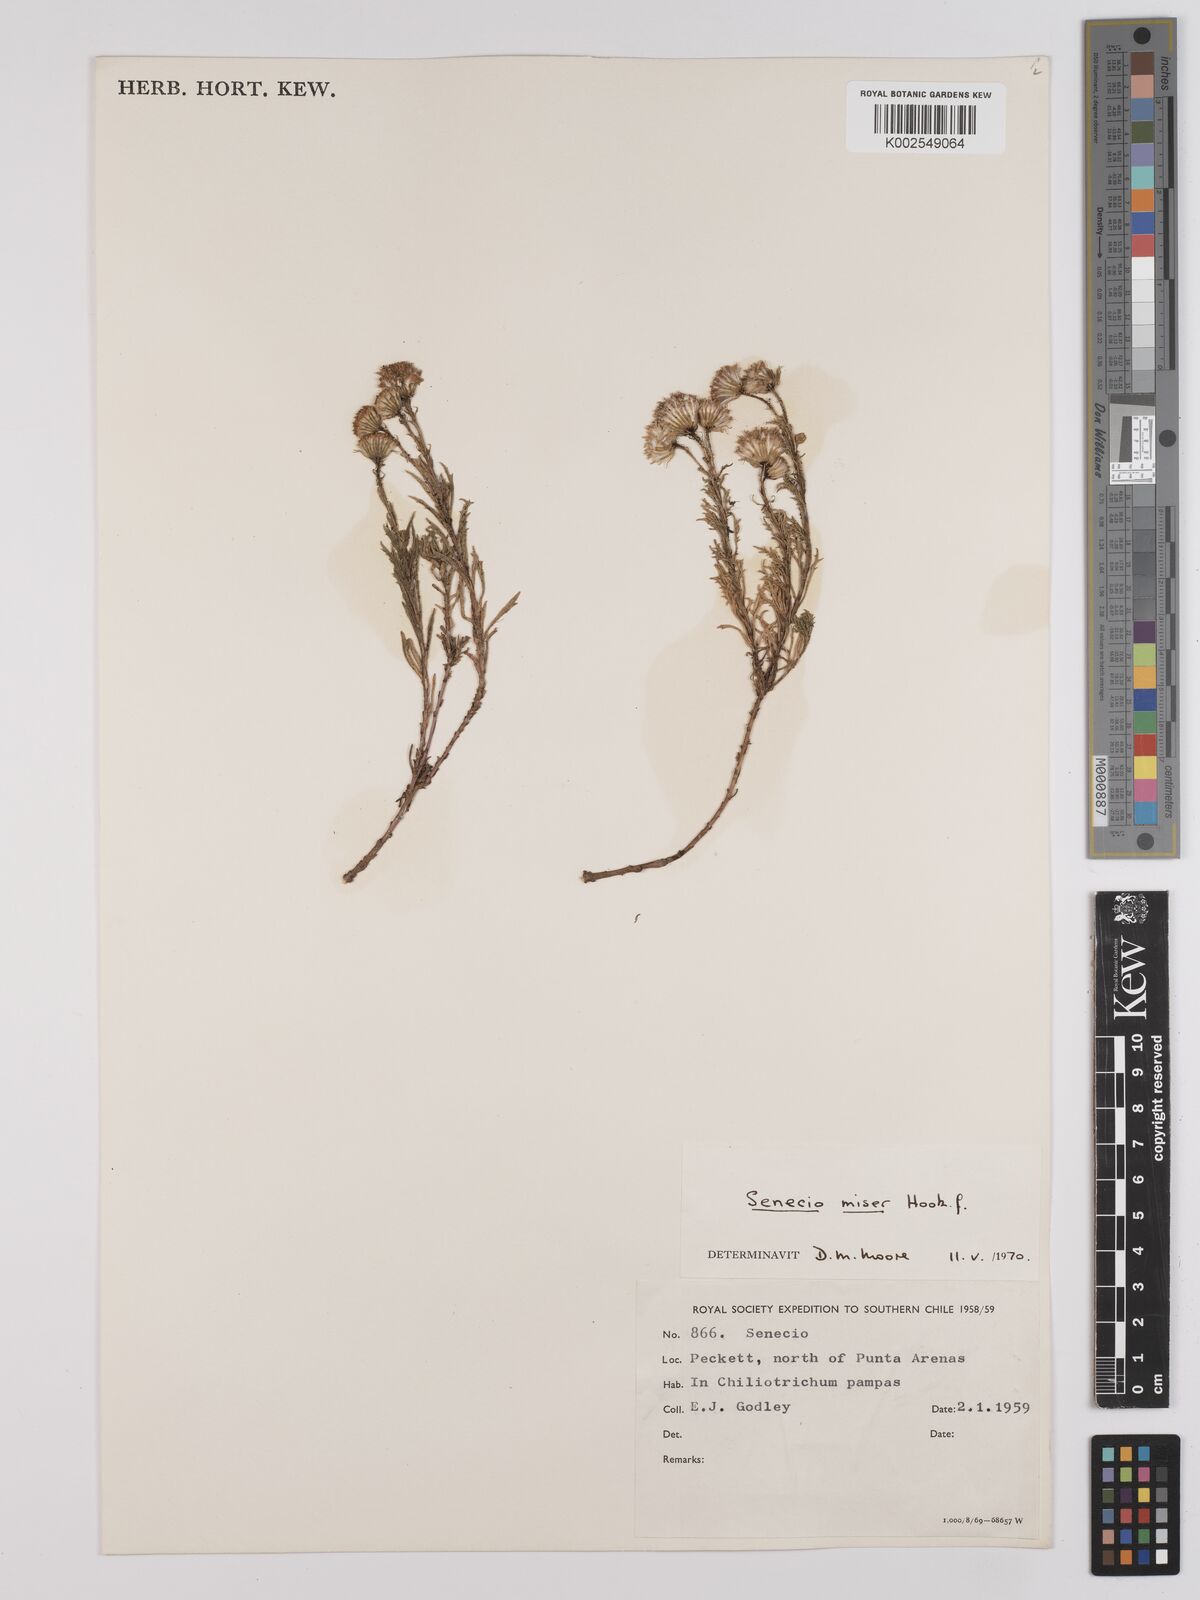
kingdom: Plantae
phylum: Tracheophyta
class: Magnoliopsida
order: Asterales
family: Asteraceae
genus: Senecio
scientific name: Senecio miser
